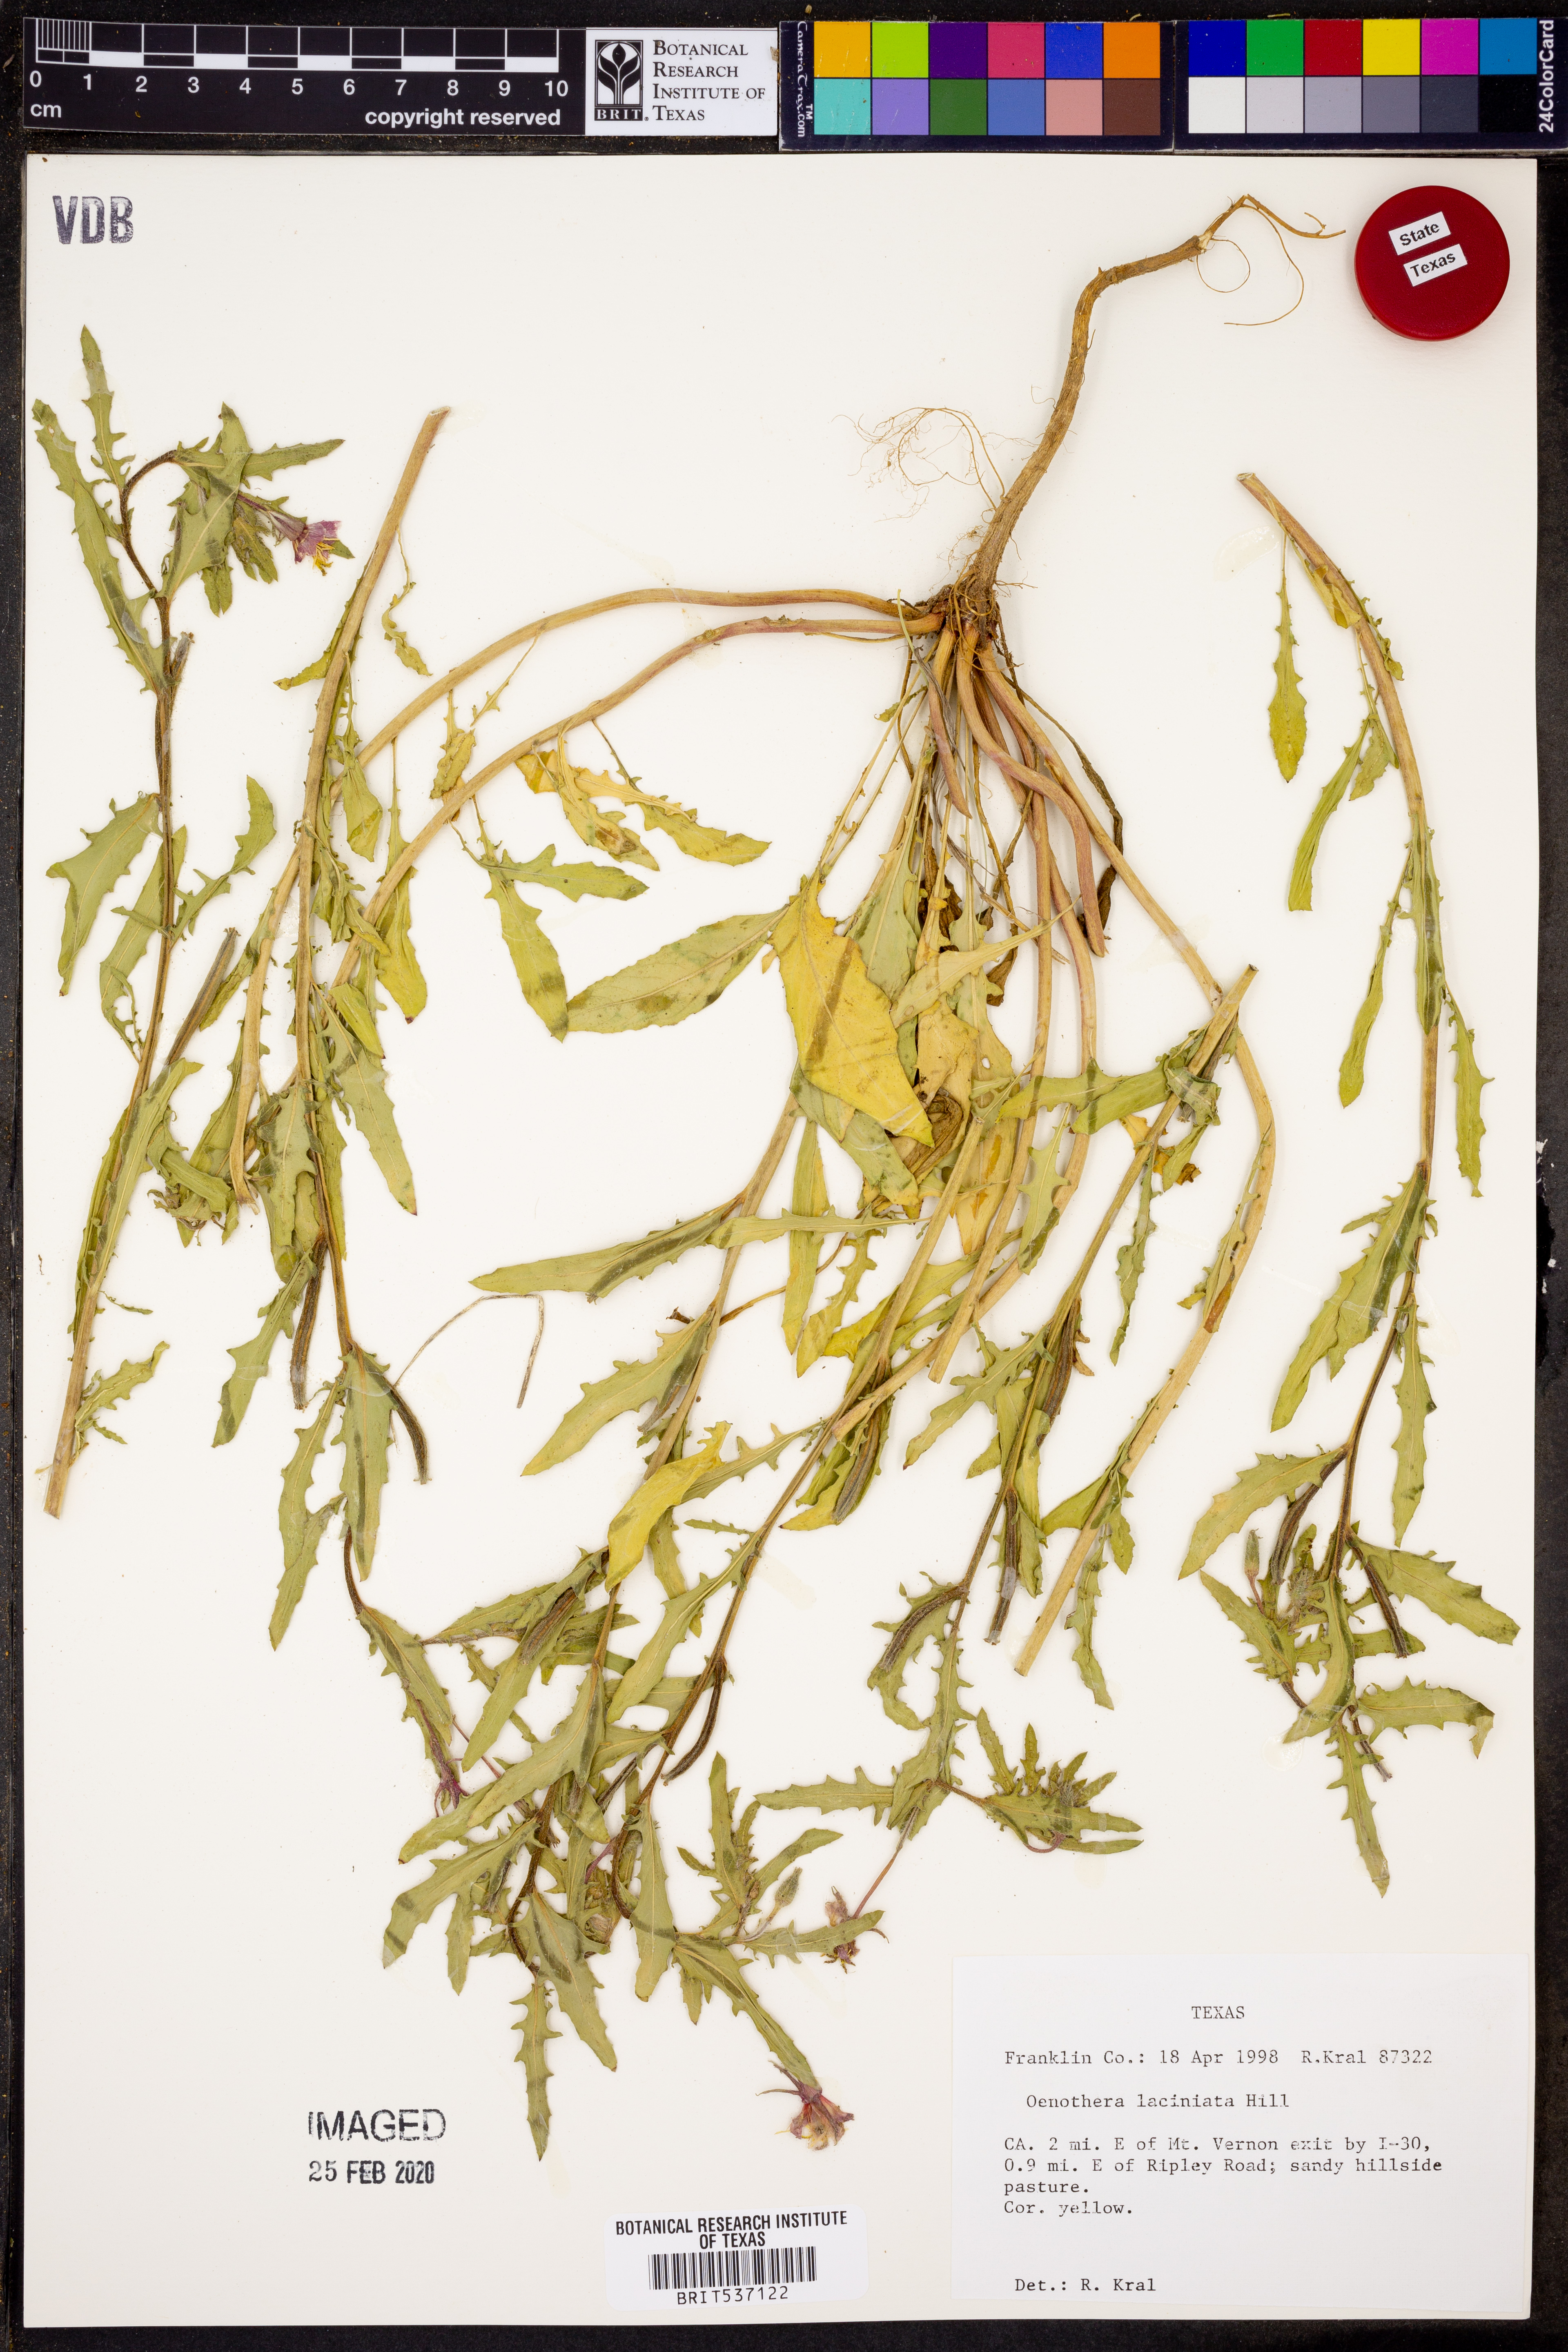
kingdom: Plantae
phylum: Tracheophyta
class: Magnoliopsida
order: Myrtales
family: Onagraceae
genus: Oenothera
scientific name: Oenothera laciniata
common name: Cut-leaved evening-primrose
